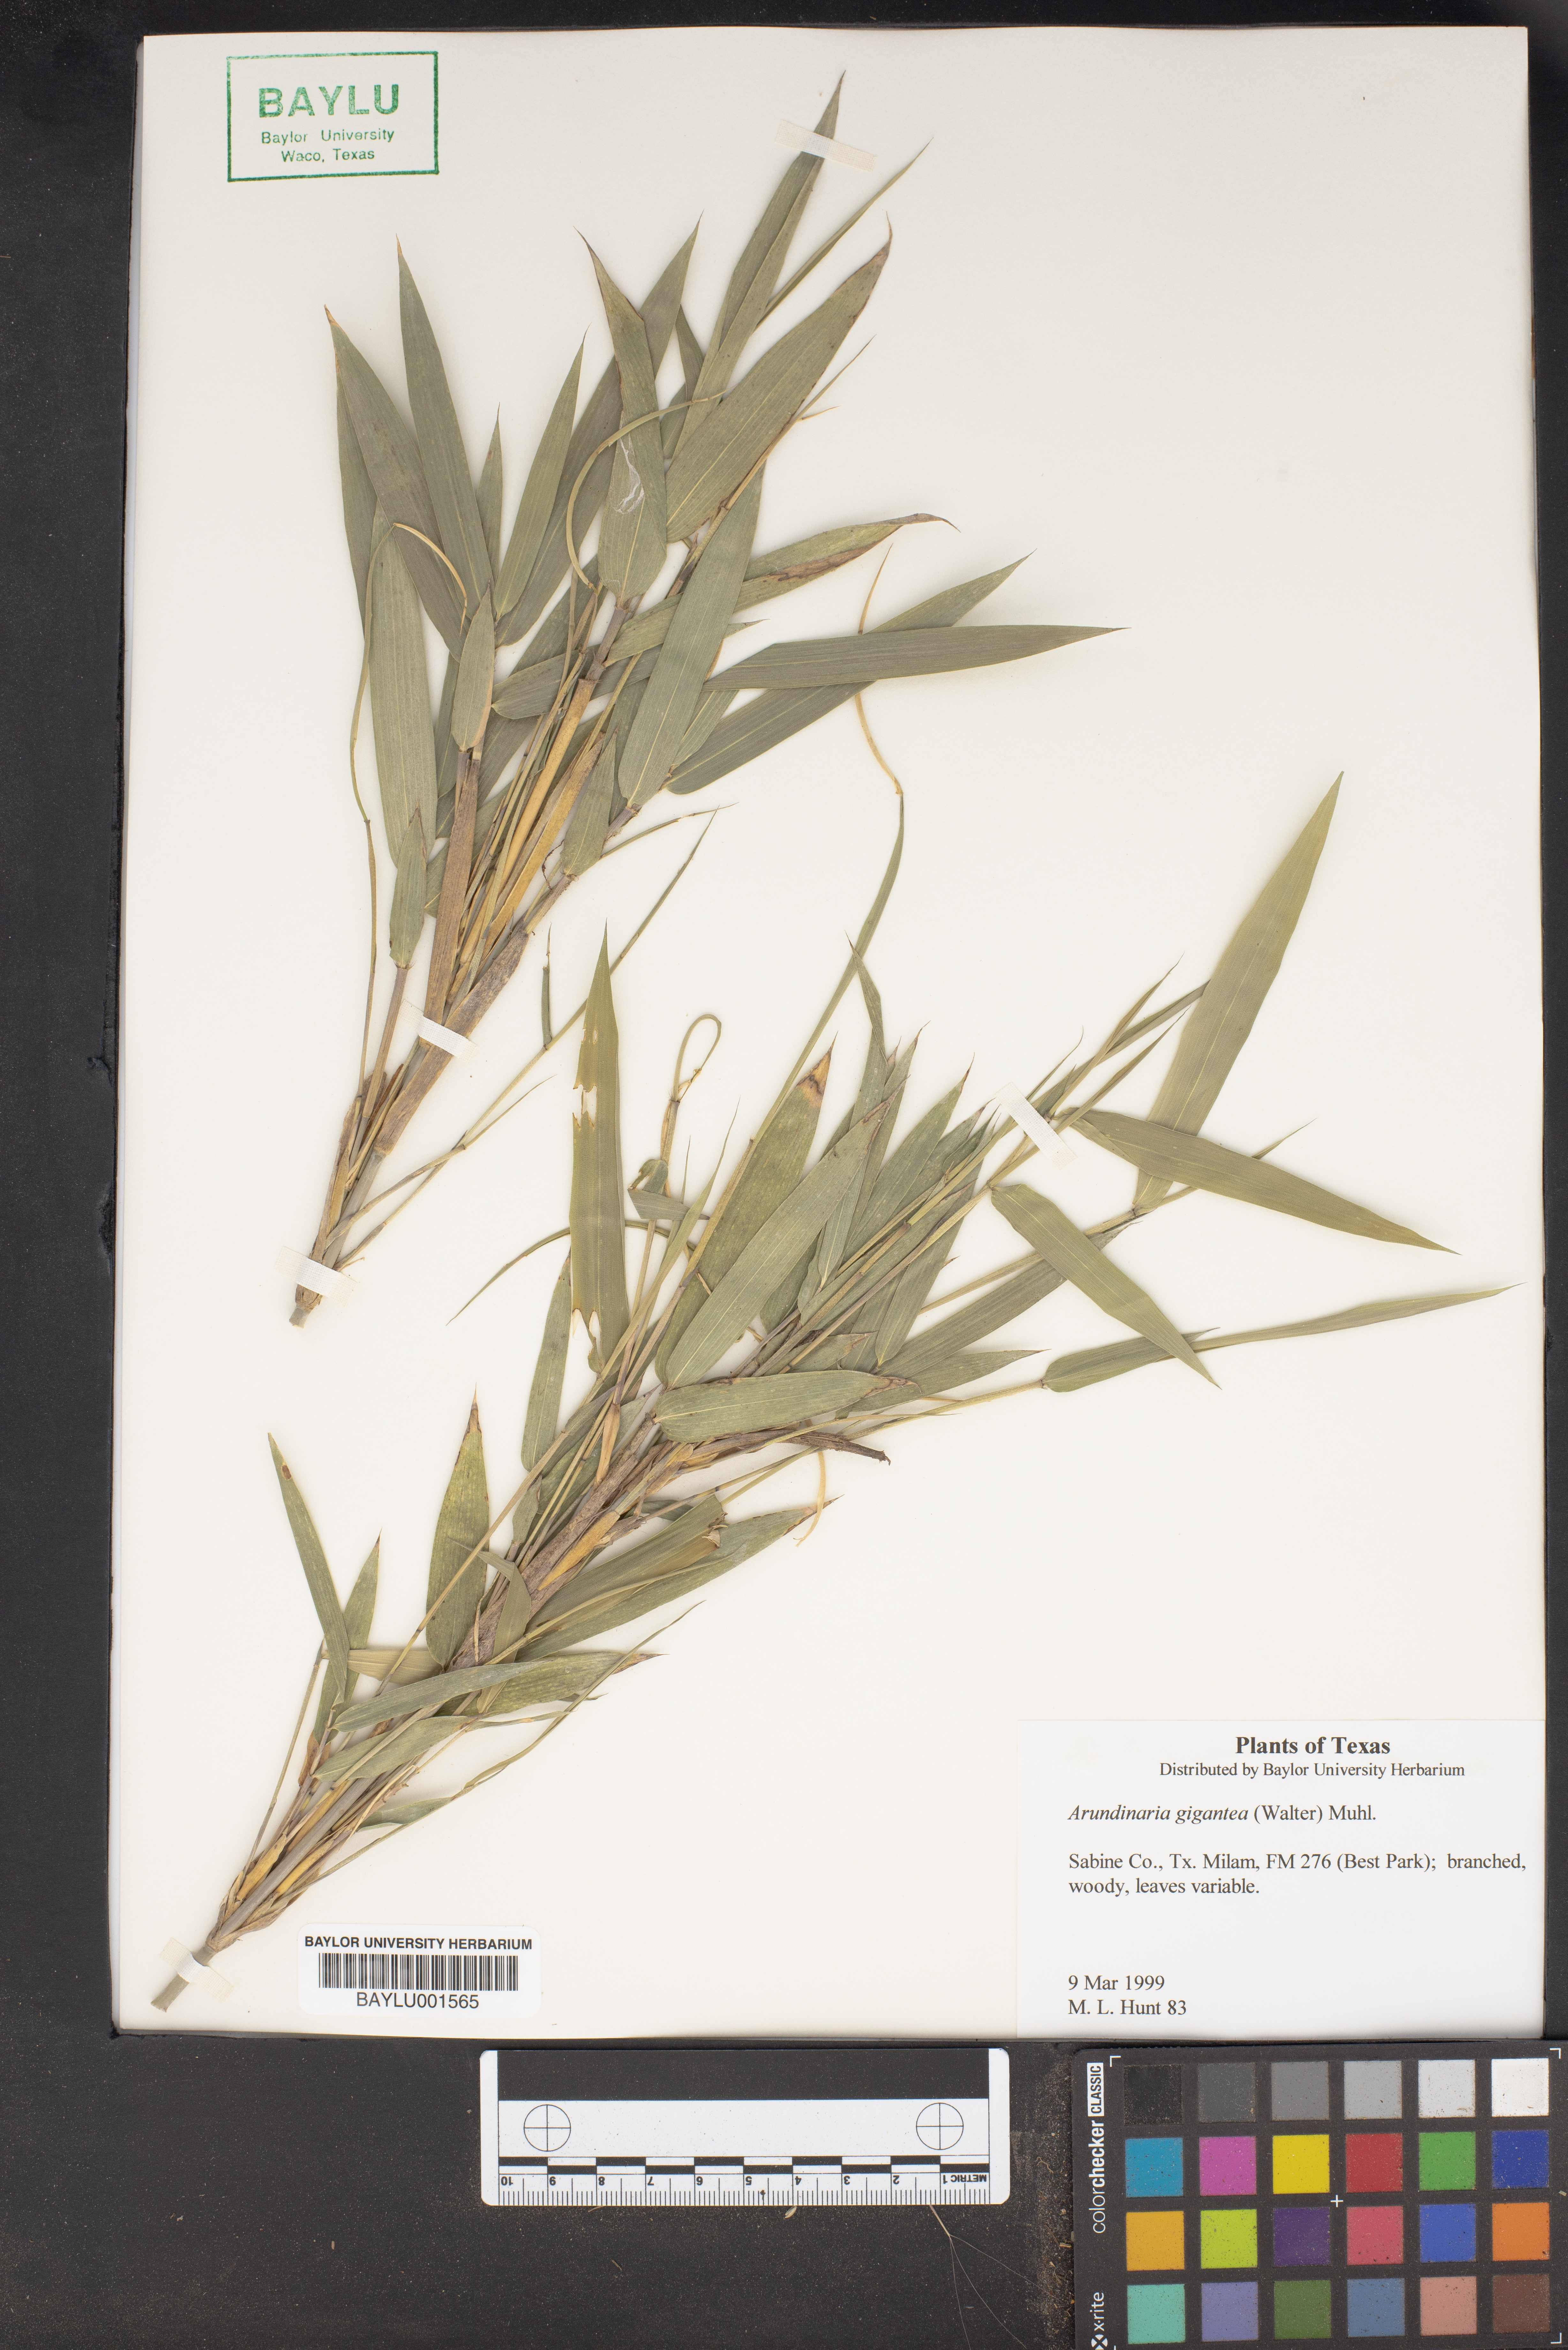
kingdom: Plantae
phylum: Tracheophyta
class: Liliopsida
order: Poales
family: Poaceae
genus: Arundinaria
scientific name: Arundinaria gigantea
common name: Giant cane
